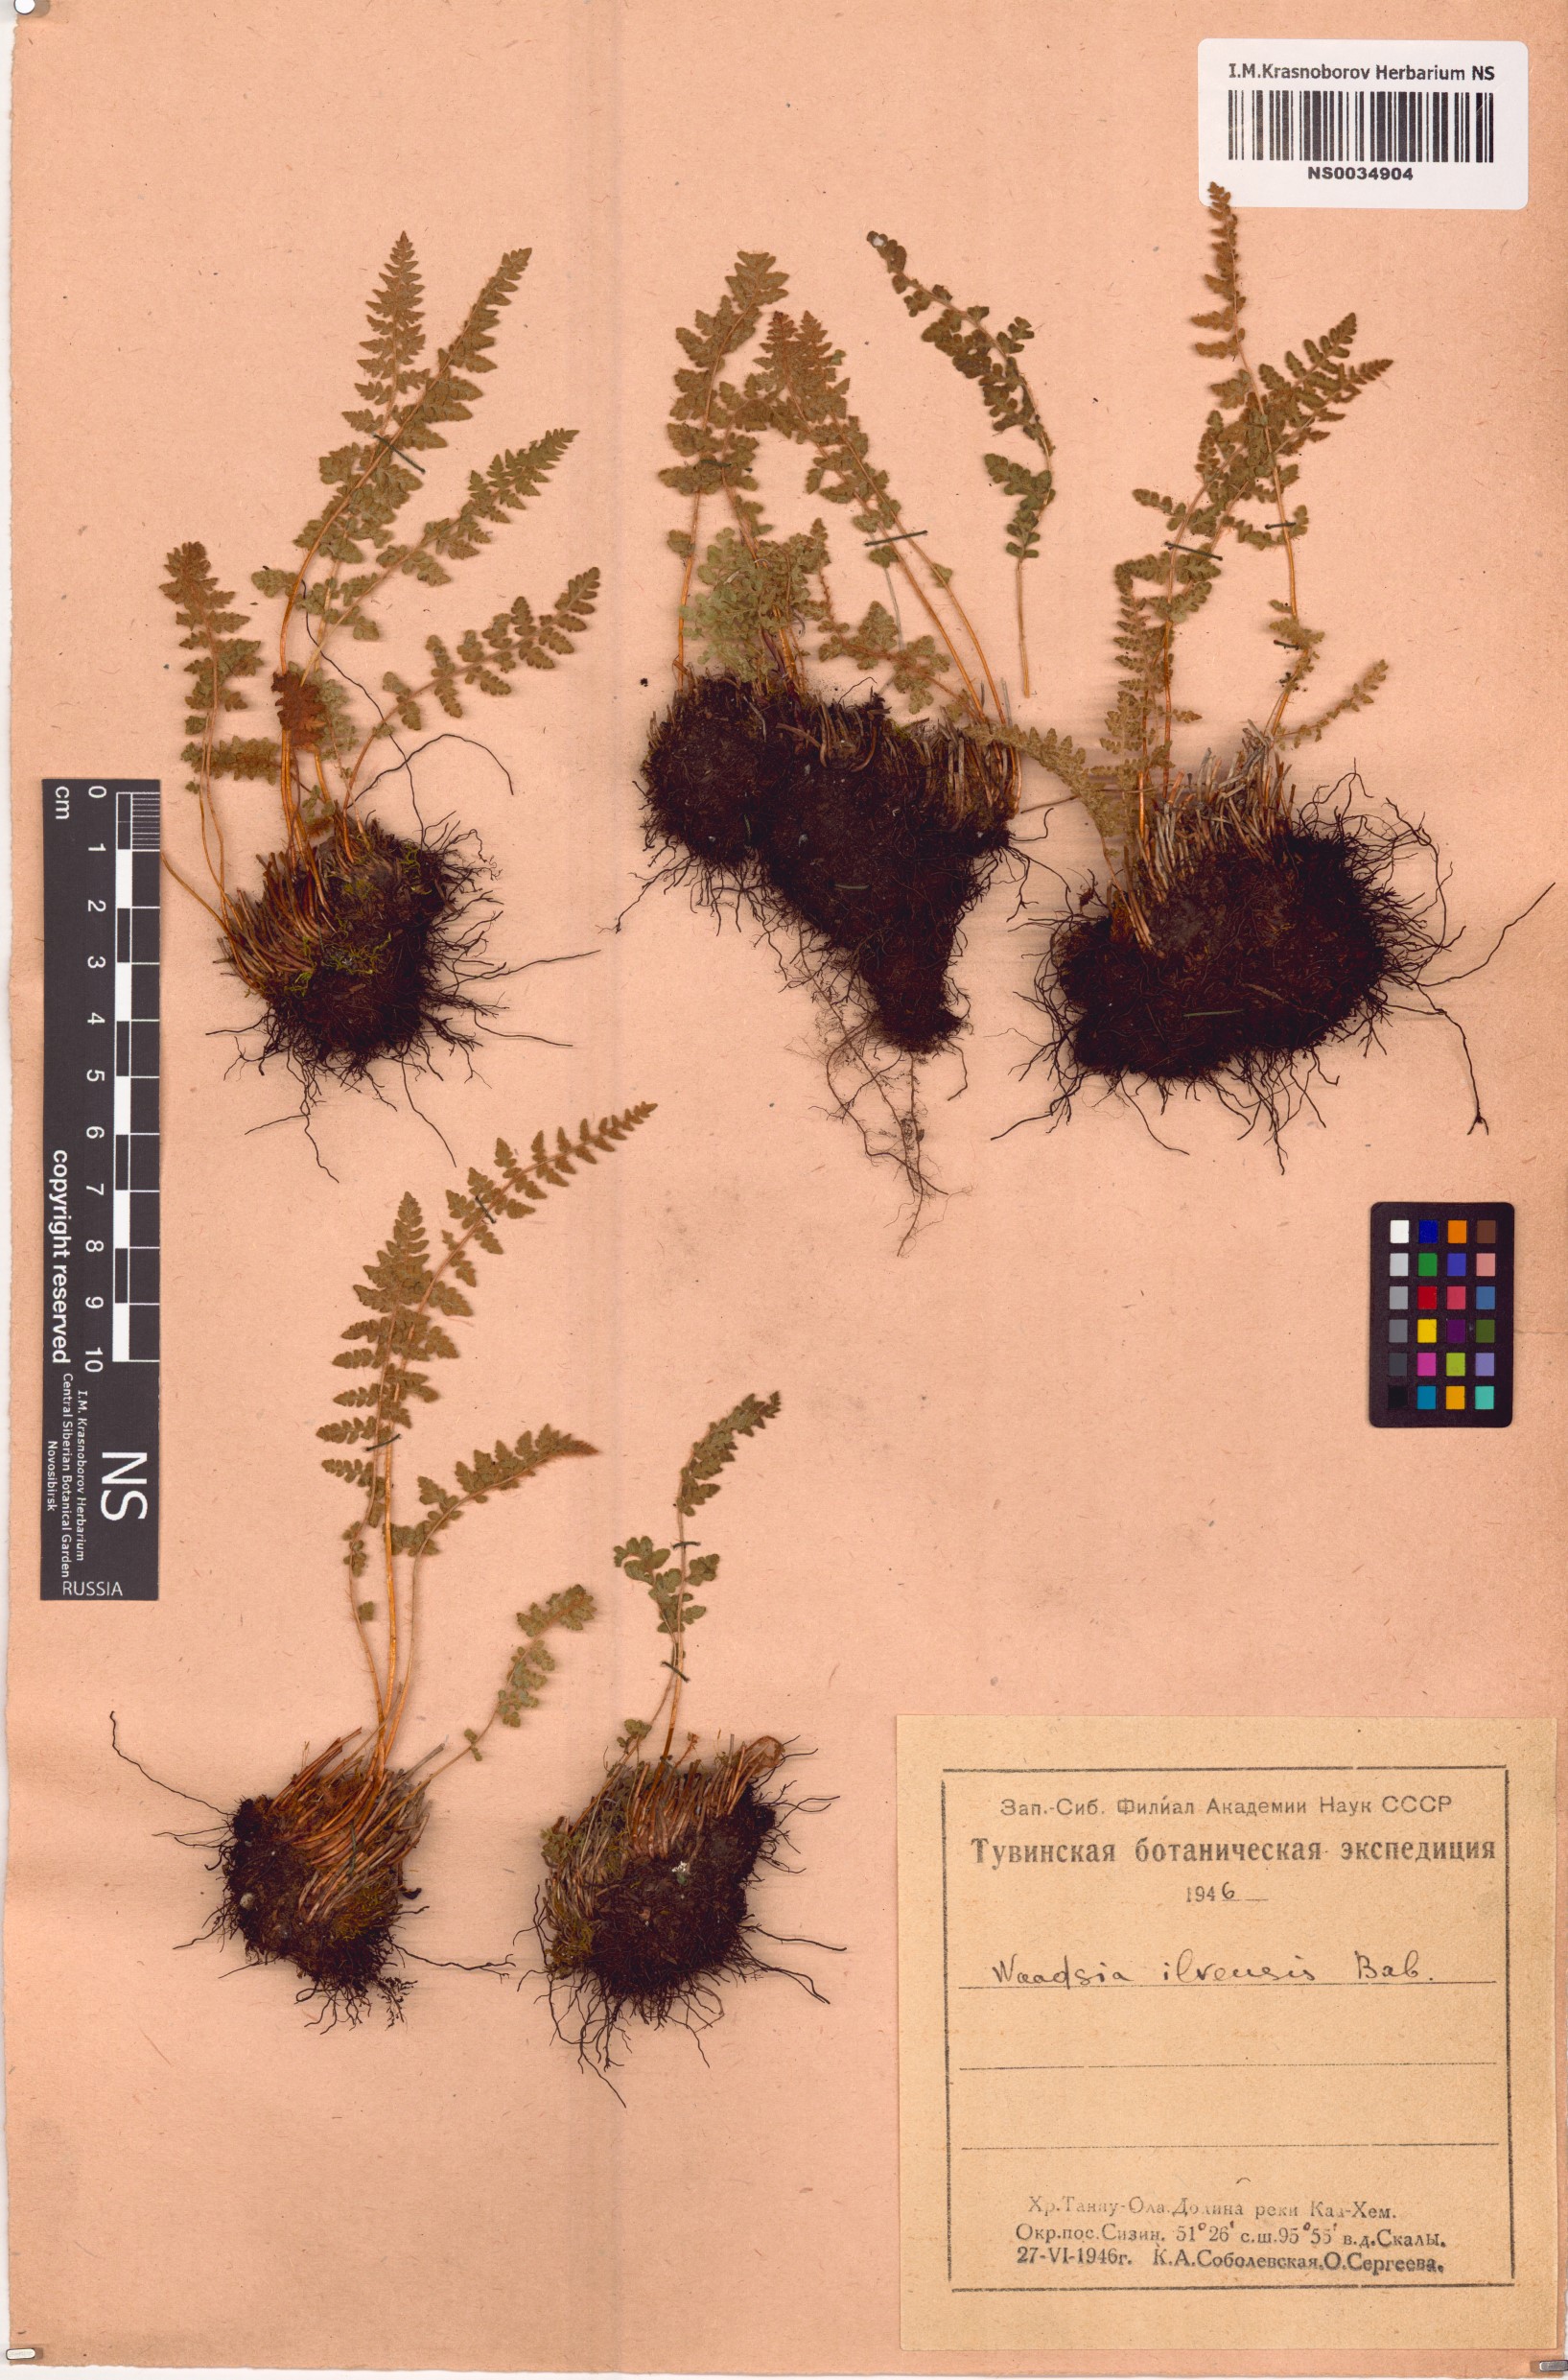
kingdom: Plantae
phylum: Tracheophyta
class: Polypodiopsida
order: Polypodiales
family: Woodsiaceae
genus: Woodsia
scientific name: Woodsia ilvensis
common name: Fragrant woodsia
